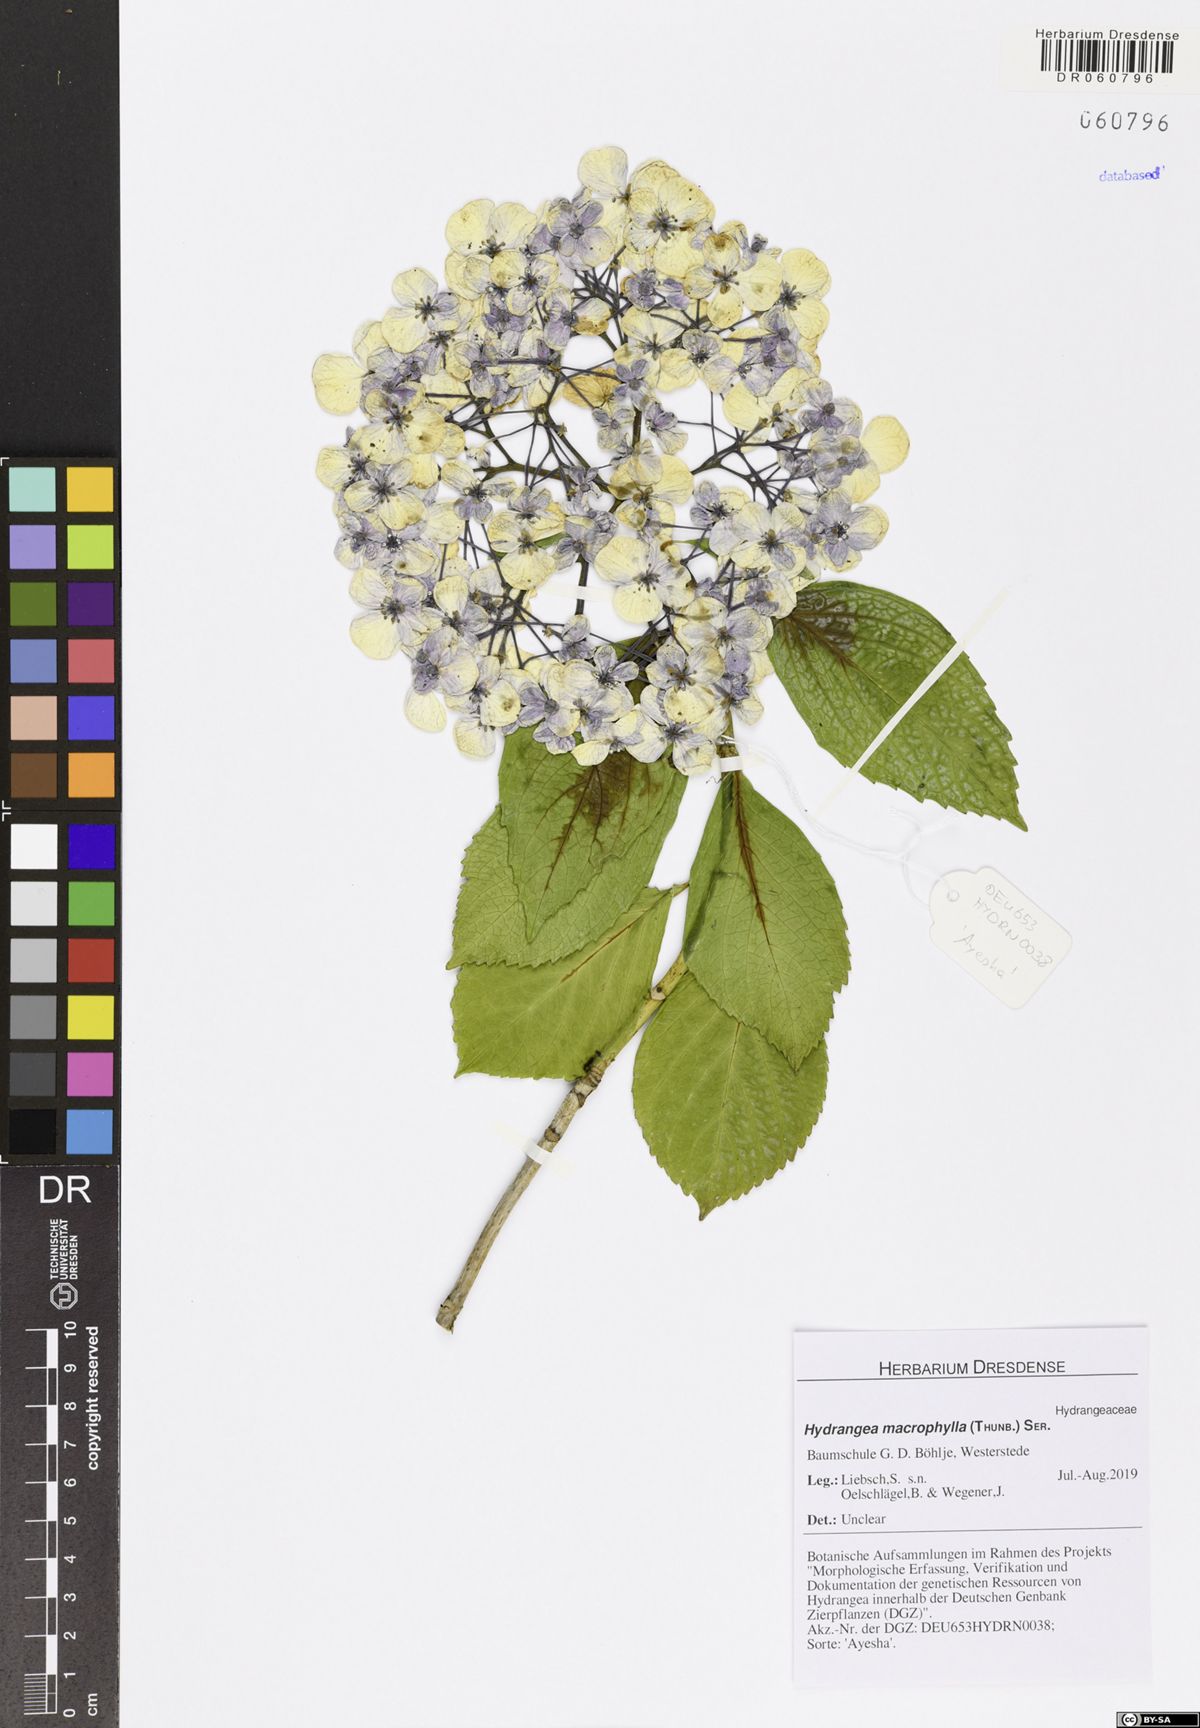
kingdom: Plantae
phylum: Tracheophyta
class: Magnoliopsida
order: Cornales
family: Hydrangeaceae
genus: Hydrangea
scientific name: Hydrangea macrophylla
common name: Hydrangea
